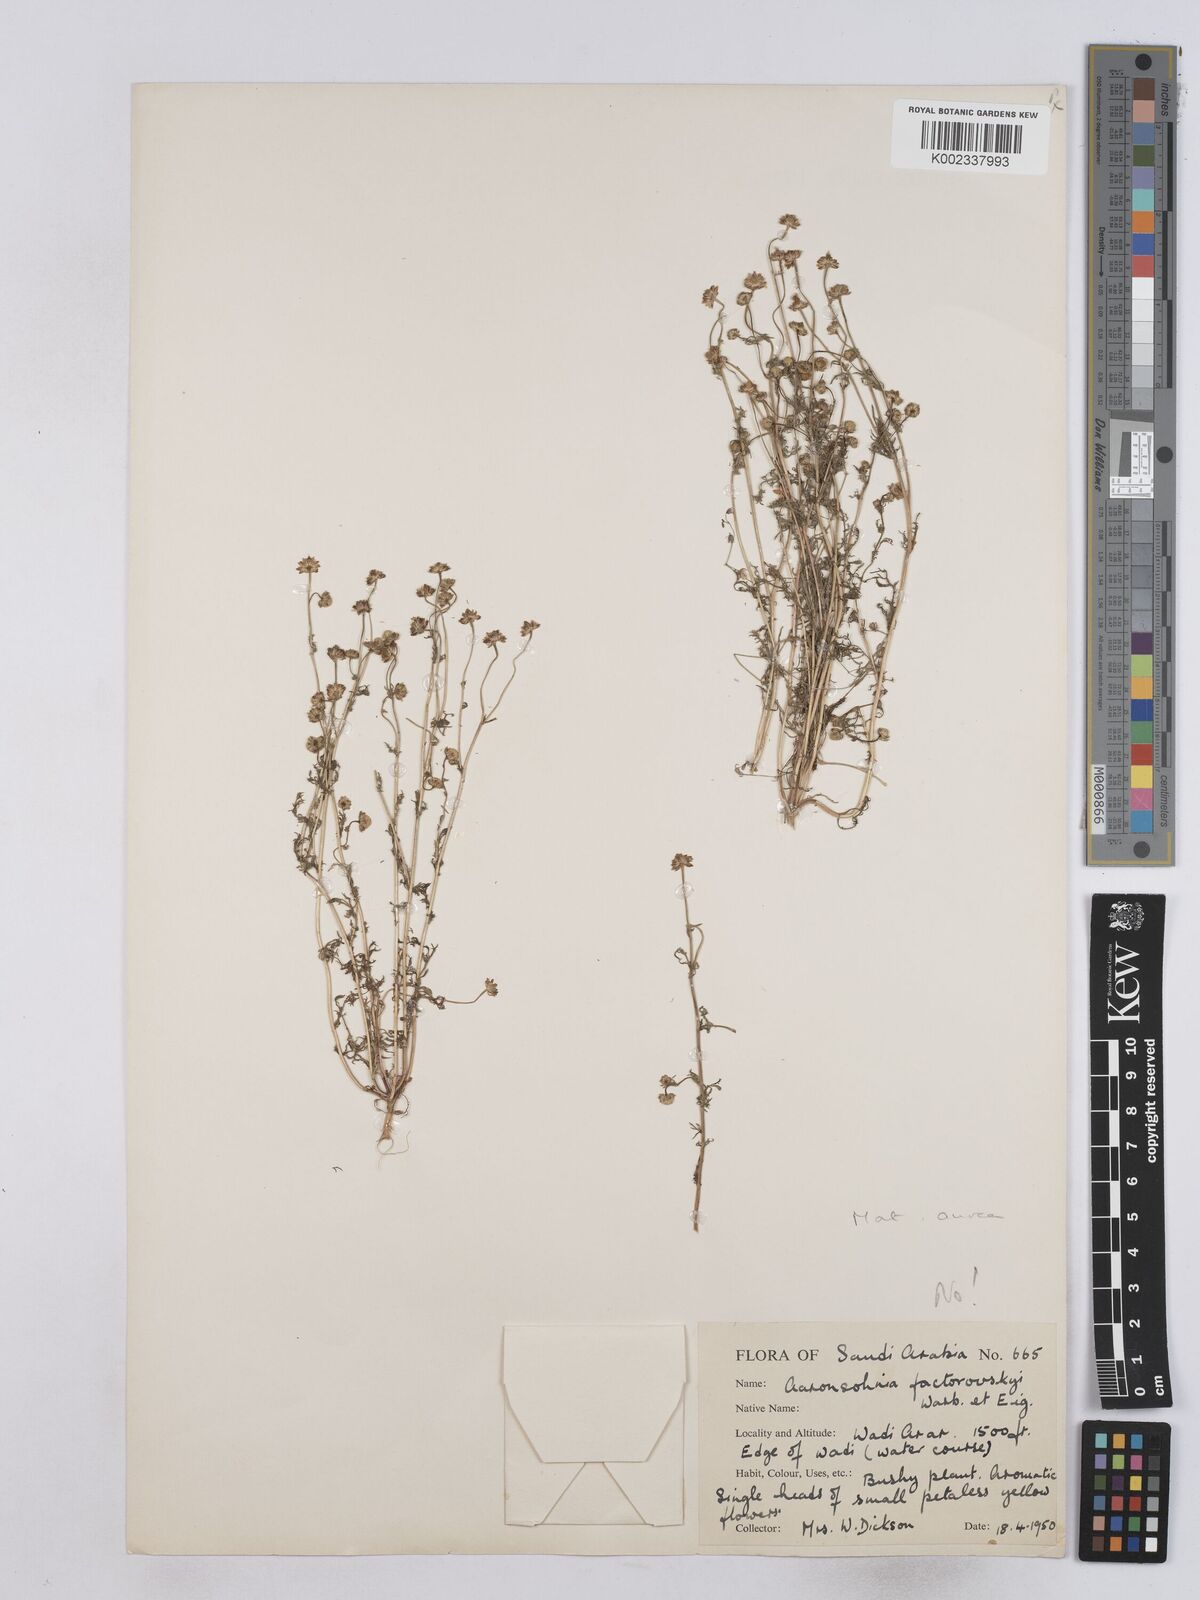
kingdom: Plantae
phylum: Tracheophyta
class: Magnoliopsida
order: Asterales
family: Asteraceae
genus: Matricaria
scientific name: Matricaria aurea
